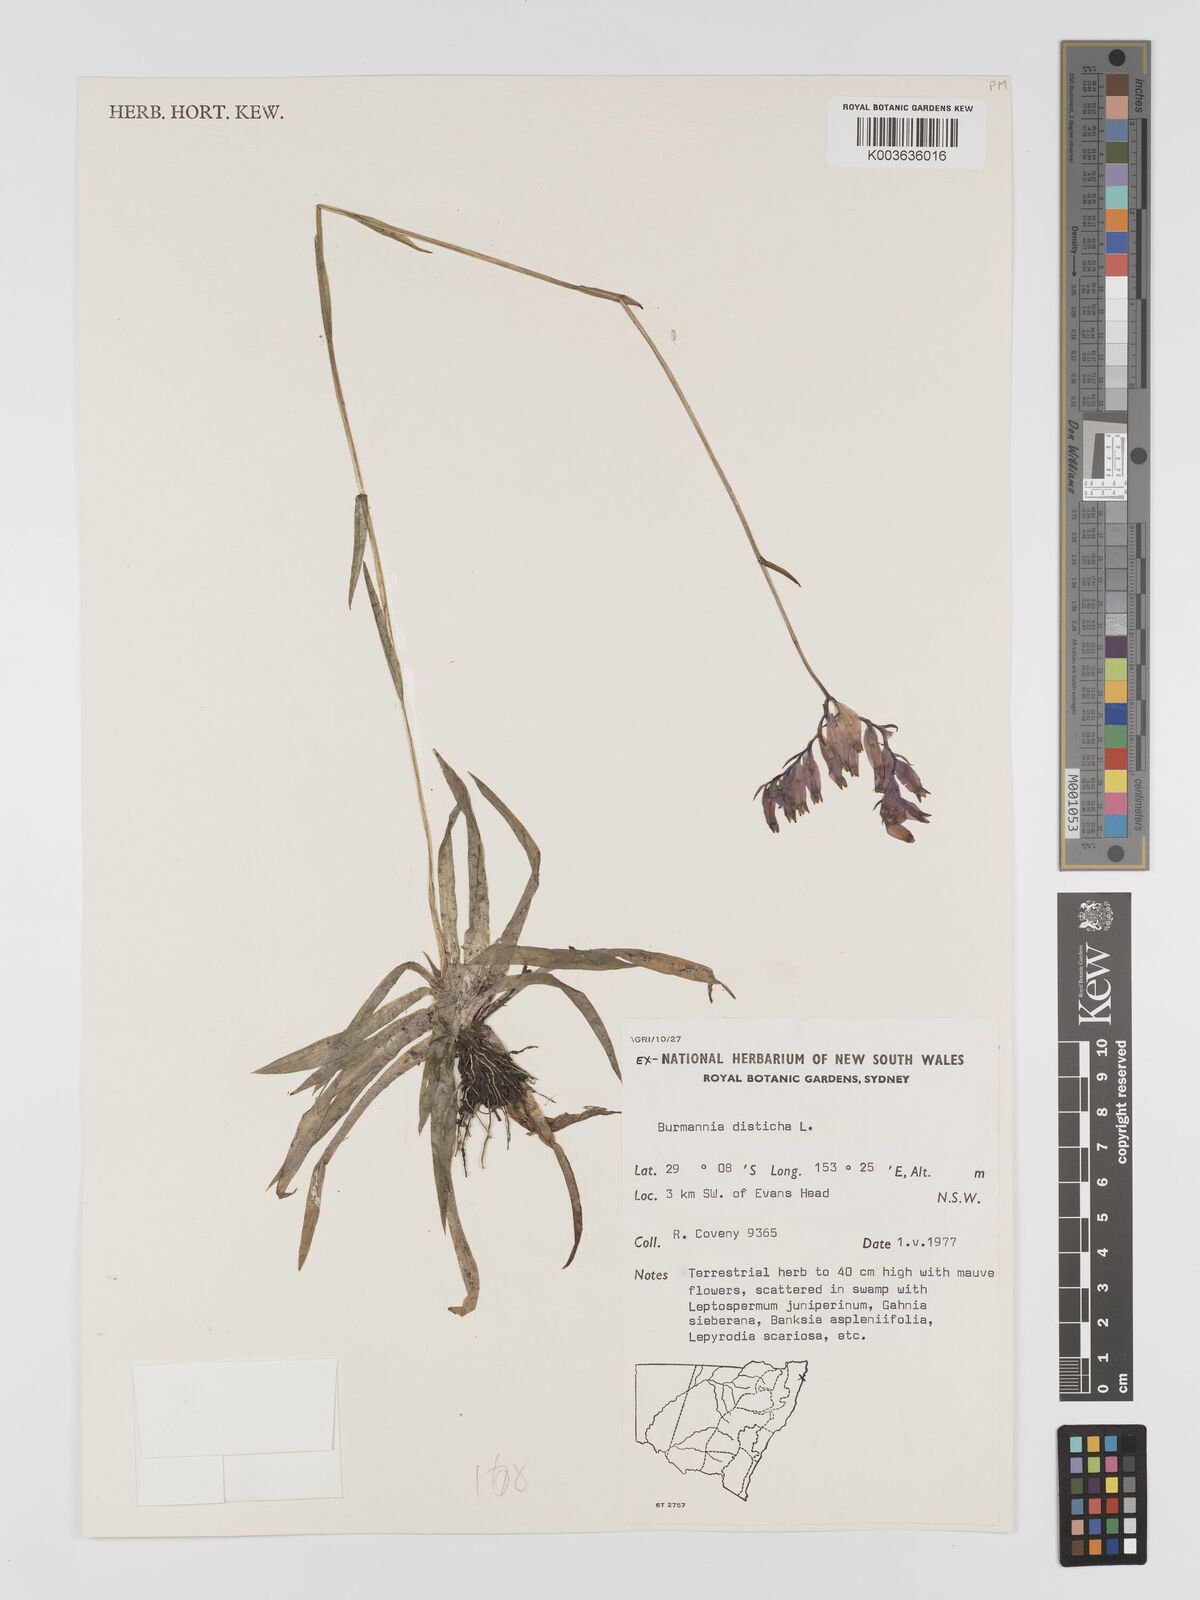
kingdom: Plantae
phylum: Tracheophyta
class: Liliopsida
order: Dioscoreales
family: Burmanniaceae
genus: Burmannia
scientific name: Burmannia disticha
